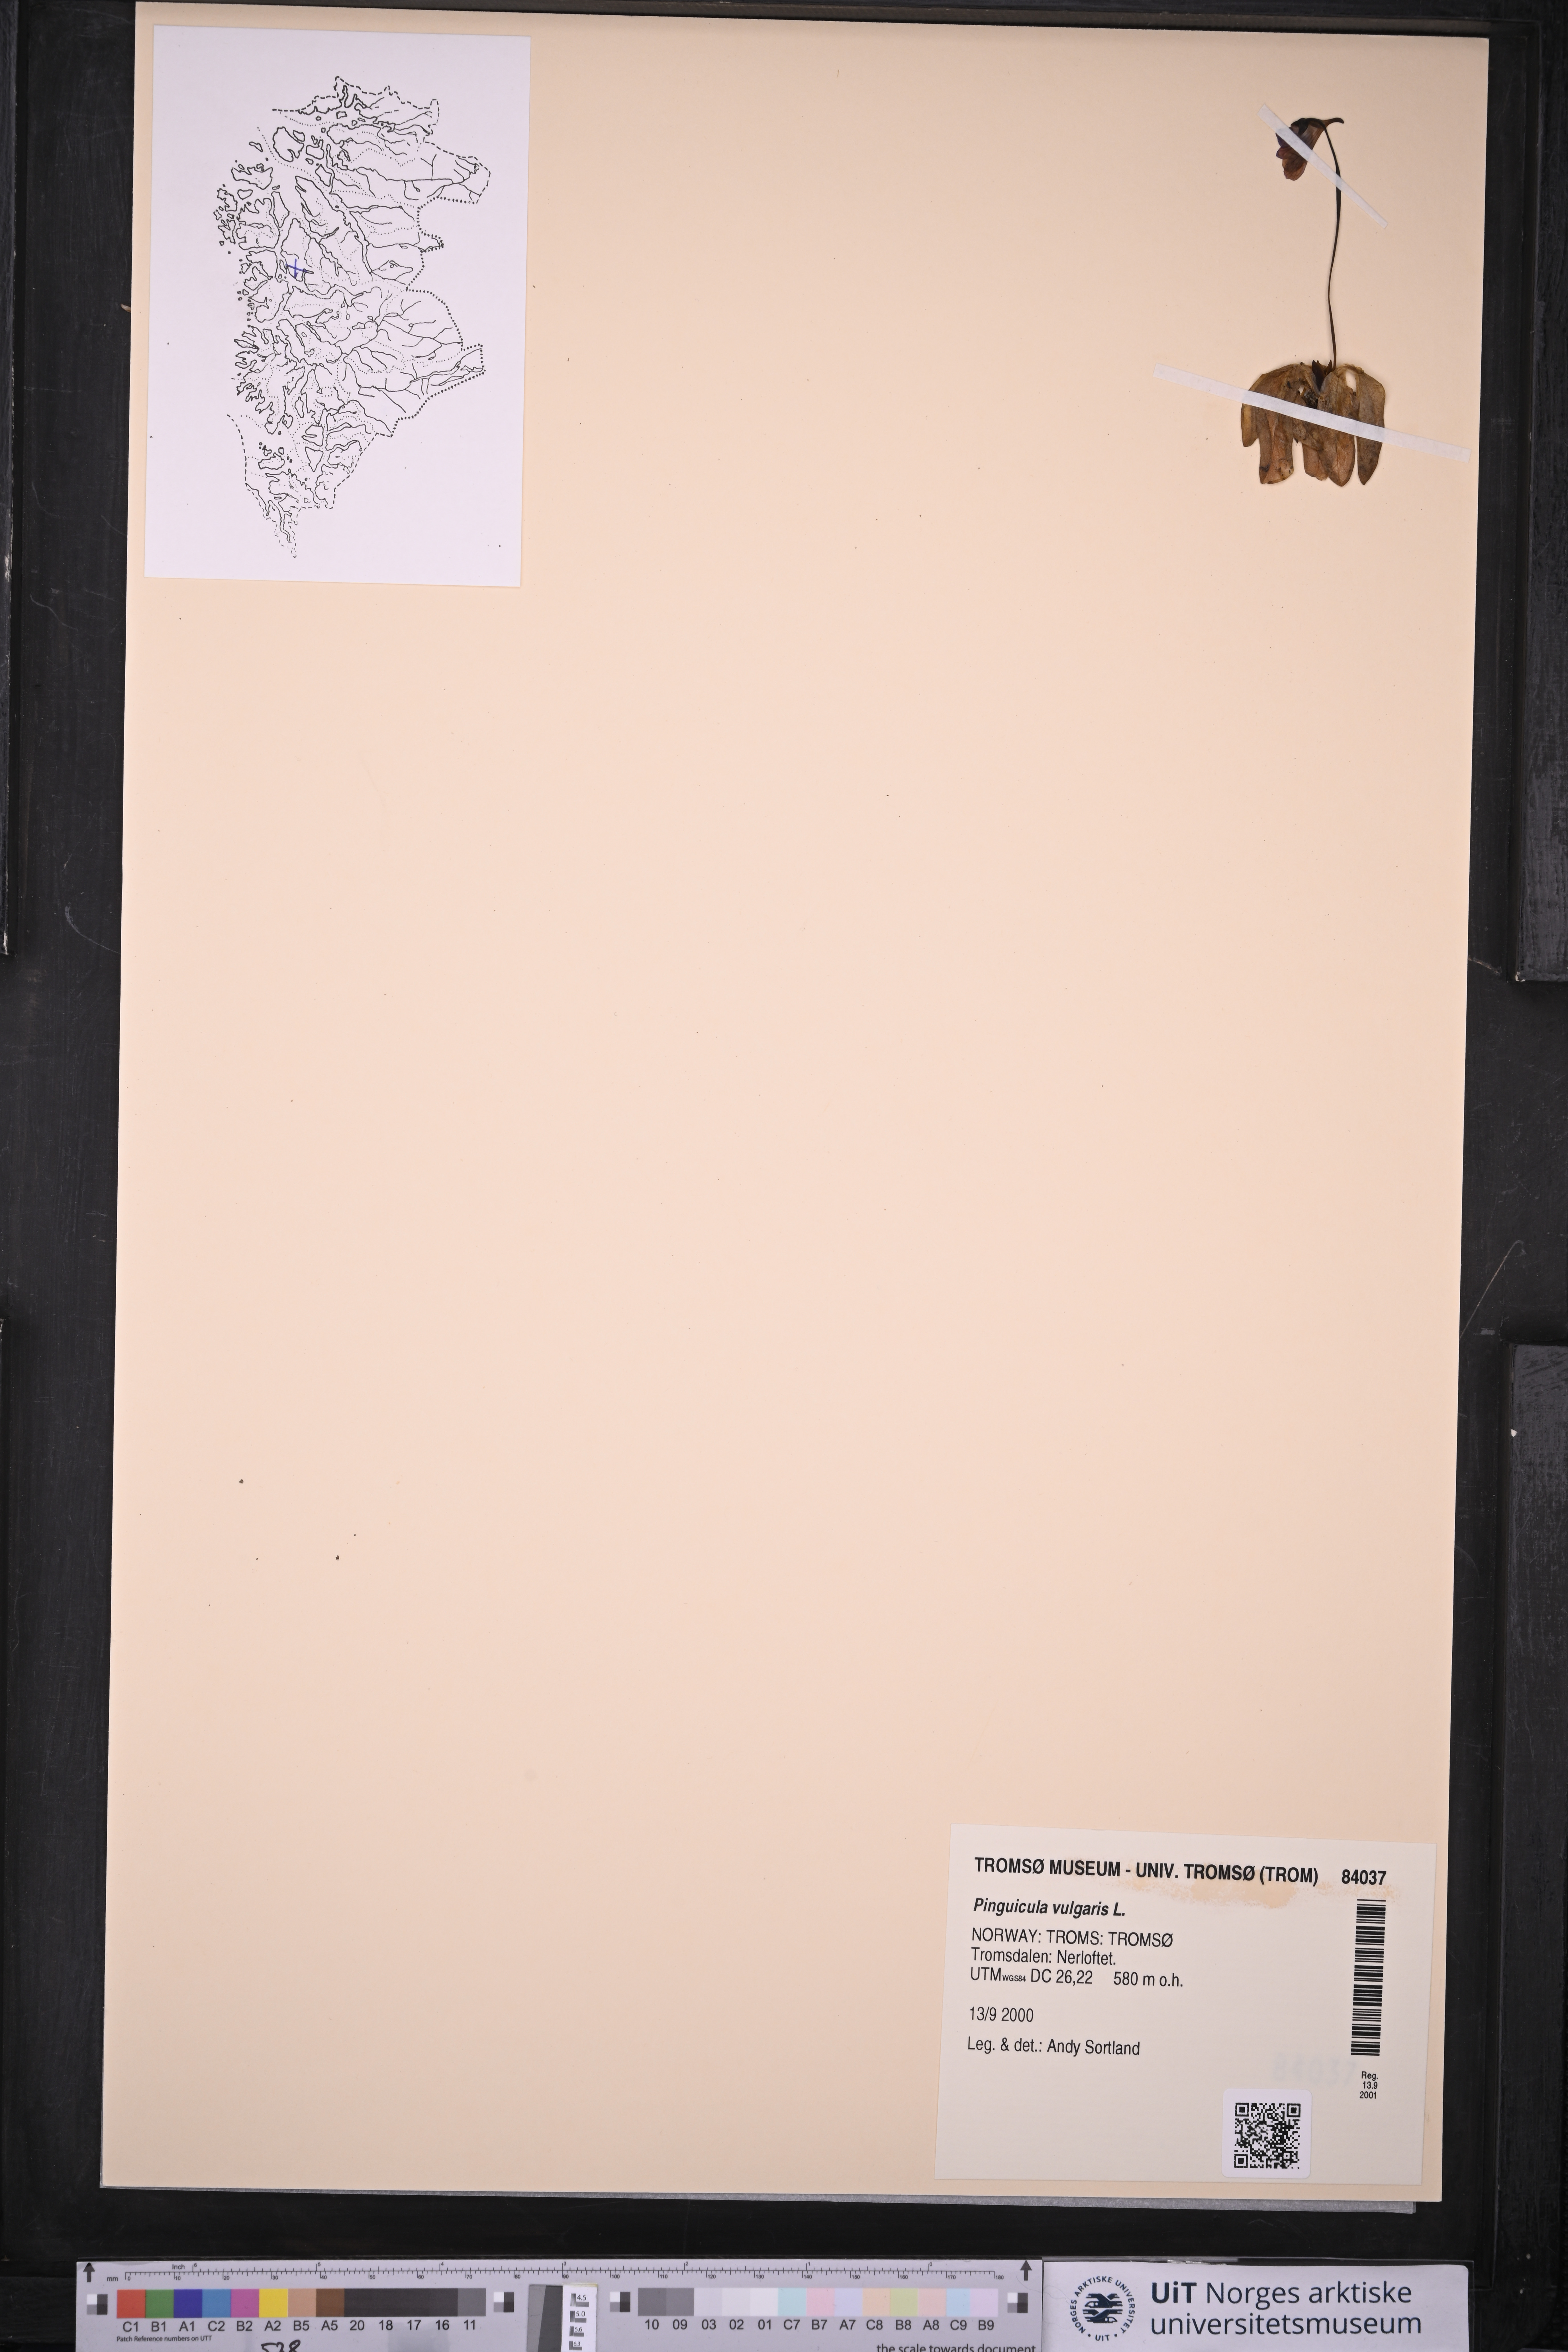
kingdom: Plantae
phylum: Tracheophyta
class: Magnoliopsida
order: Lamiales
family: Lentibulariaceae
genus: Pinguicula
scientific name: Pinguicula vulgaris
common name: Common butterwort
